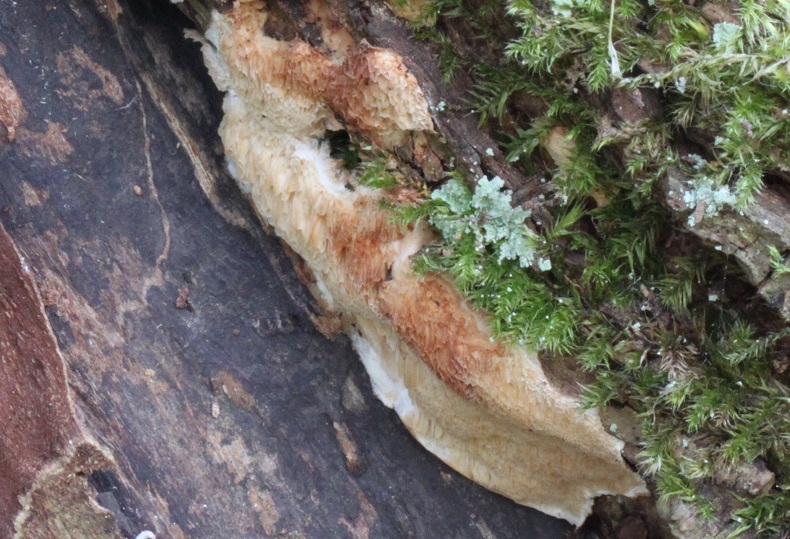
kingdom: Fungi
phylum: Basidiomycota
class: Agaricomycetes
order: Polyporales
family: Irpicaceae
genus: Resiniporus
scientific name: Resiniporus resinascens
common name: trist pastelporesvamp
